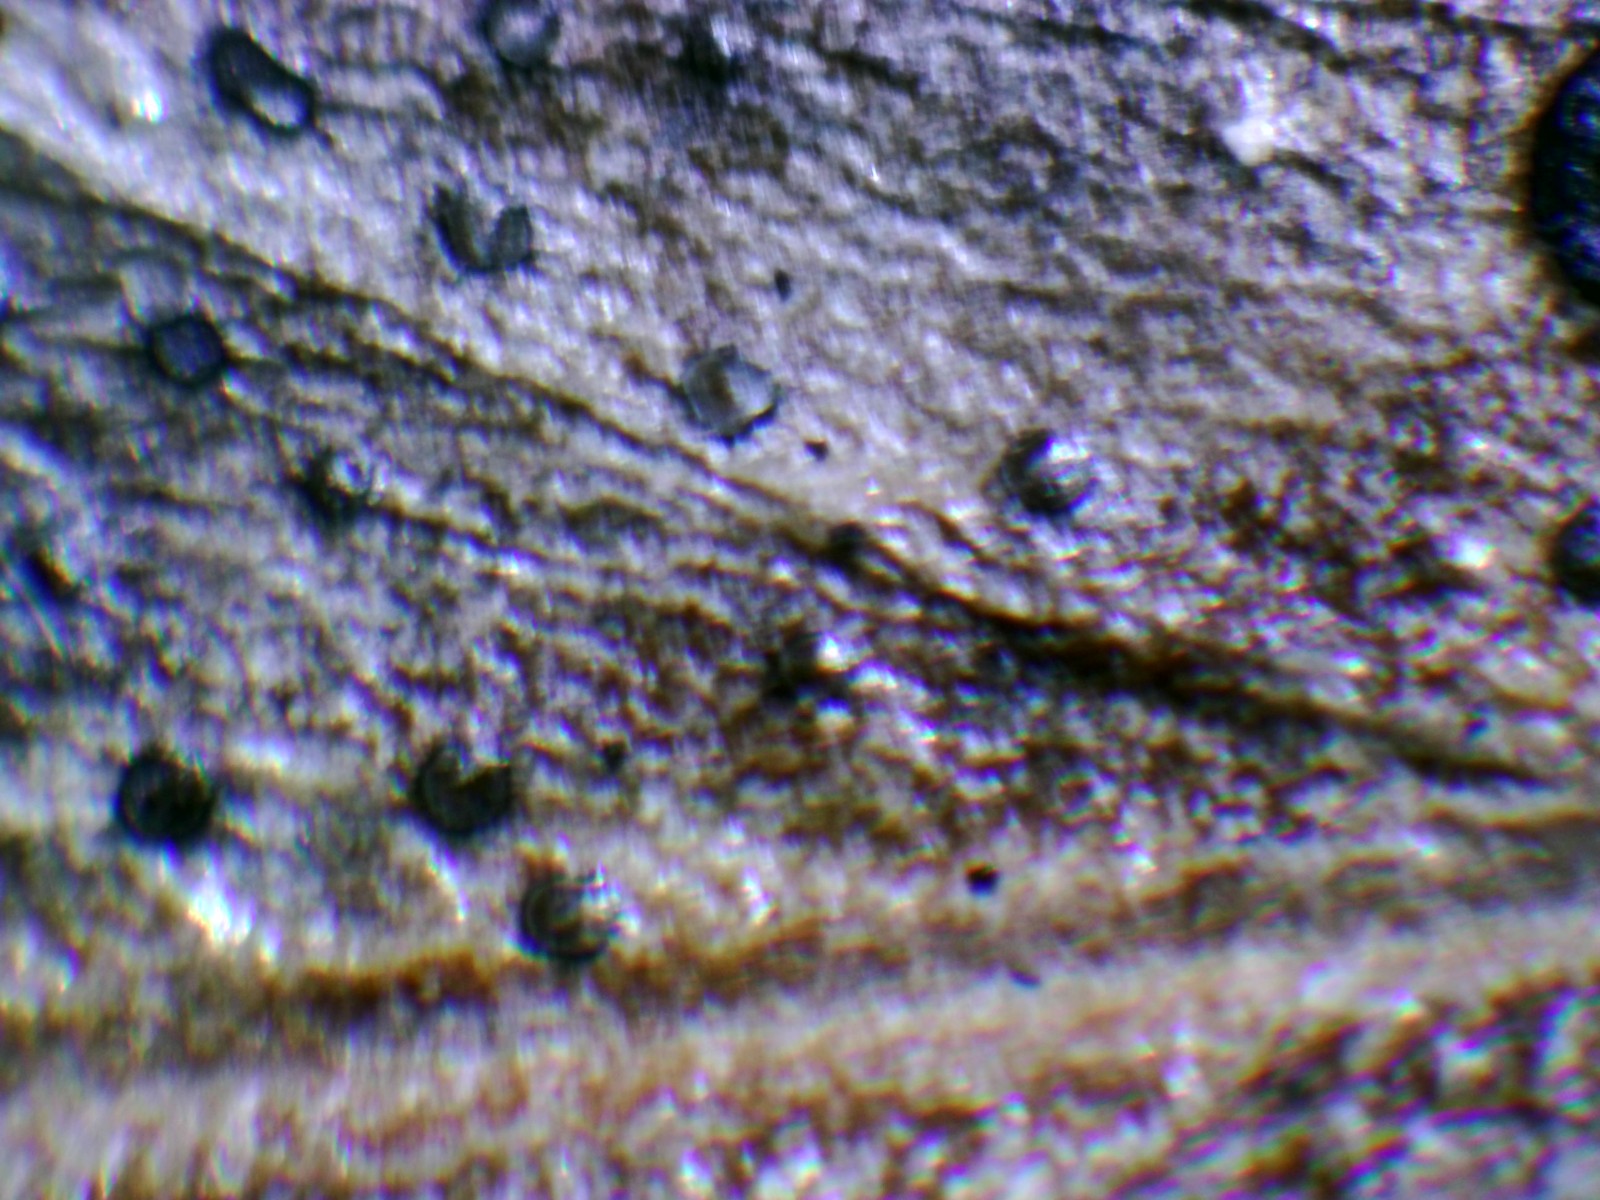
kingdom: Fungi
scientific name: Fungi
